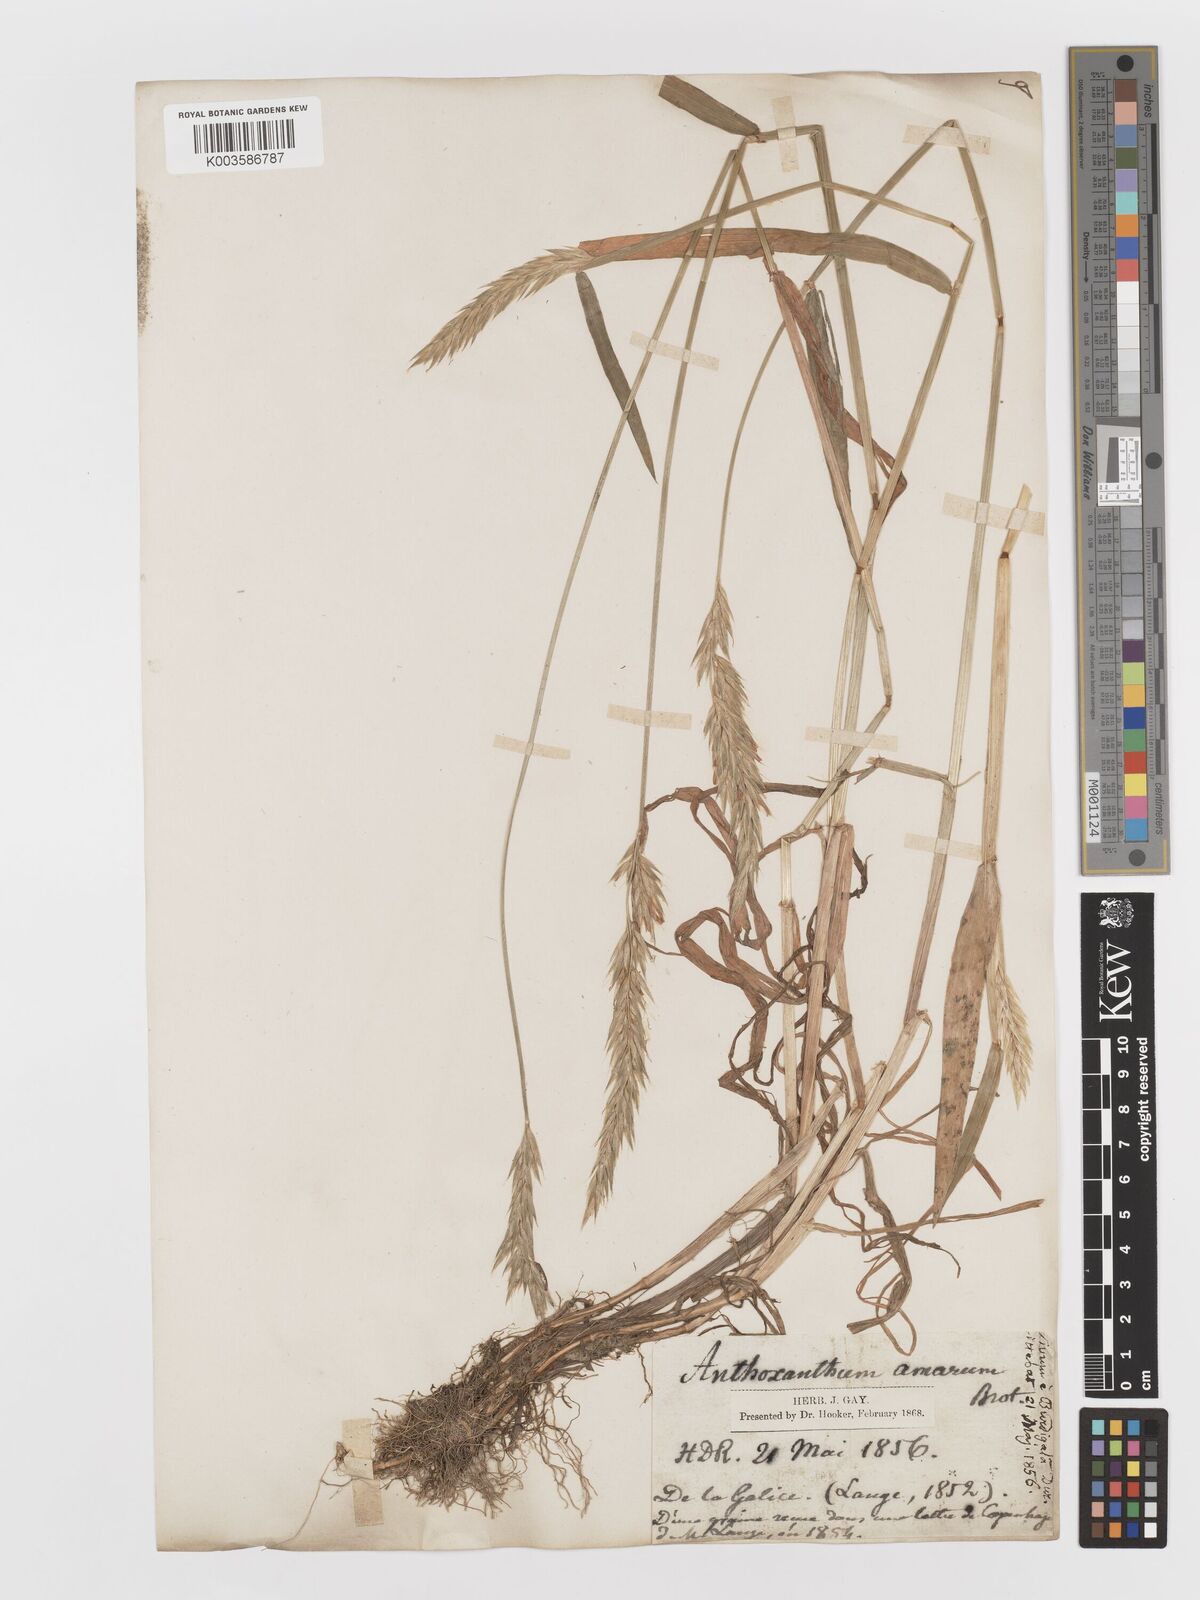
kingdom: Plantae
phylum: Tracheophyta
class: Liliopsida
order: Poales
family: Poaceae
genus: Anthoxanthum
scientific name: Anthoxanthum amarum
